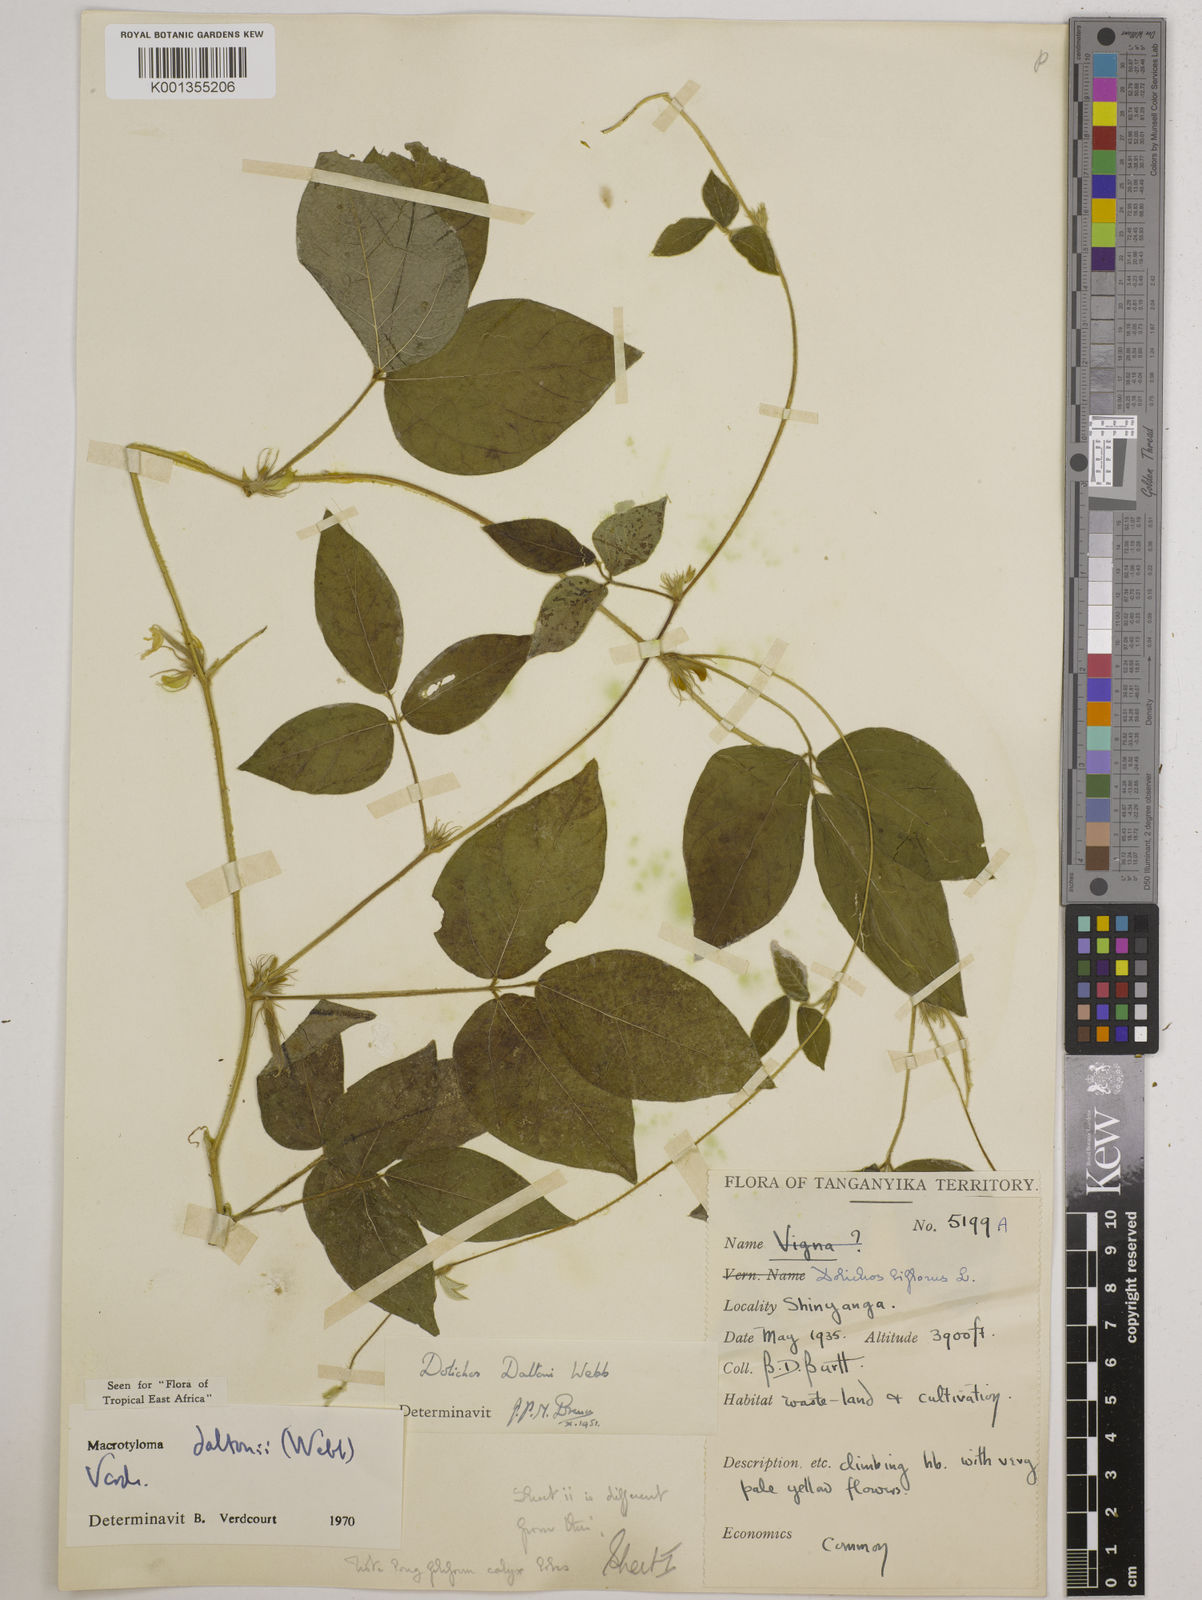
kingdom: Plantae
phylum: Tracheophyta
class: Magnoliopsida
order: Fabales
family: Fabaceae
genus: Macrotyloma
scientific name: Macrotyloma daltonii
